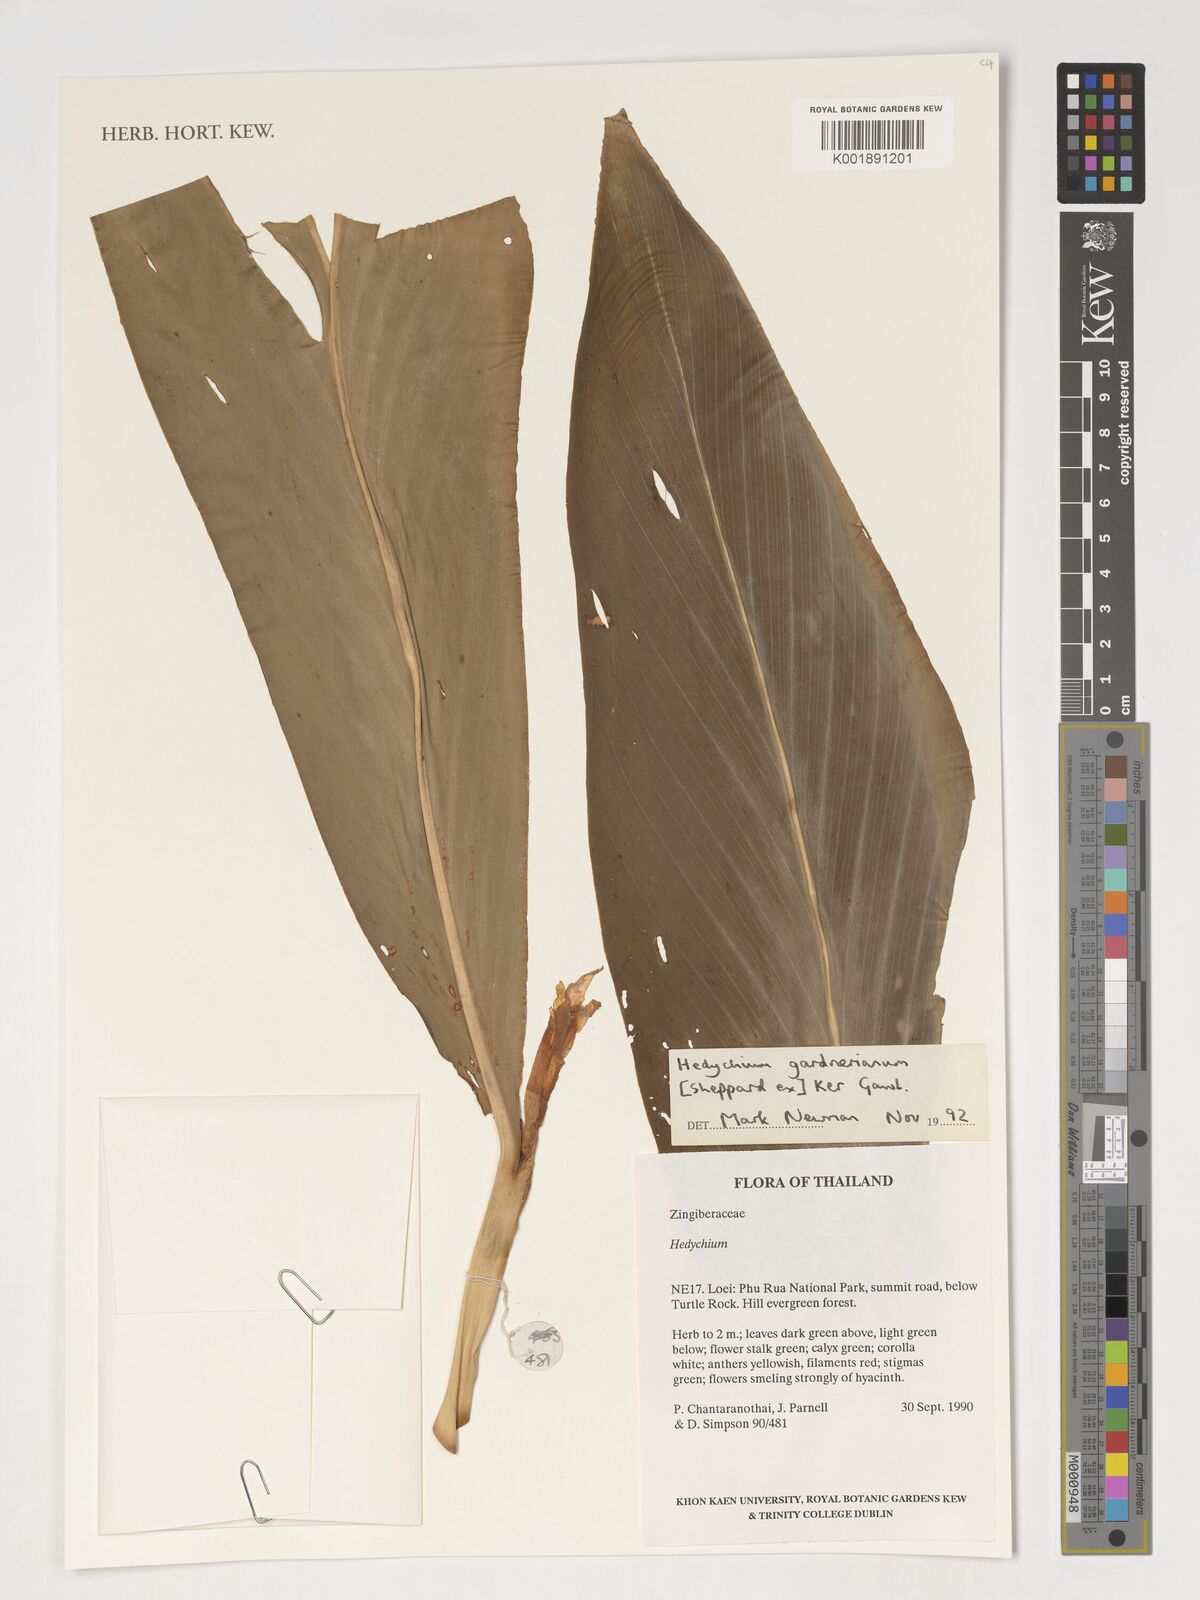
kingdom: Plantae
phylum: Tracheophyta
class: Liliopsida
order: Zingiberales
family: Zingiberaceae
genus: Hedychium
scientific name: Hedychium gardnerianum
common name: Himalayan ginger
